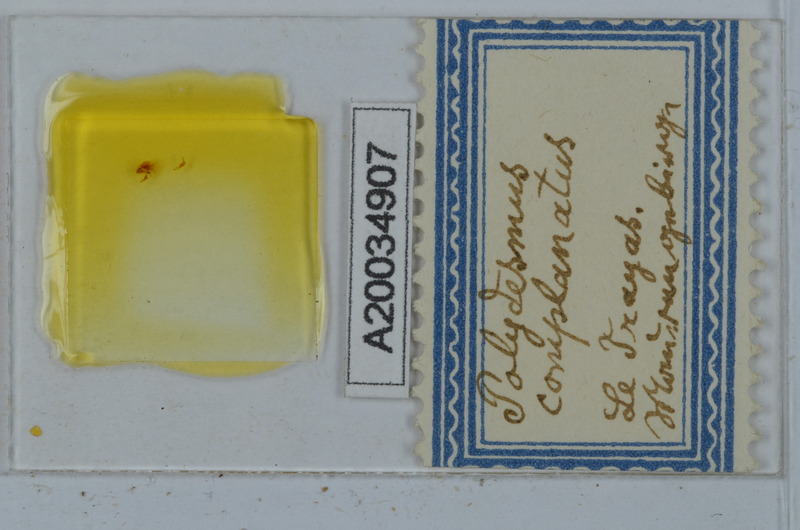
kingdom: Animalia
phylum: Arthropoda
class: Diplopoda
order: Polydesmida
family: Polydesmidae
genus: Polydesmus
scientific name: Polydesmus complanatus
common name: Flat-backed millipede
